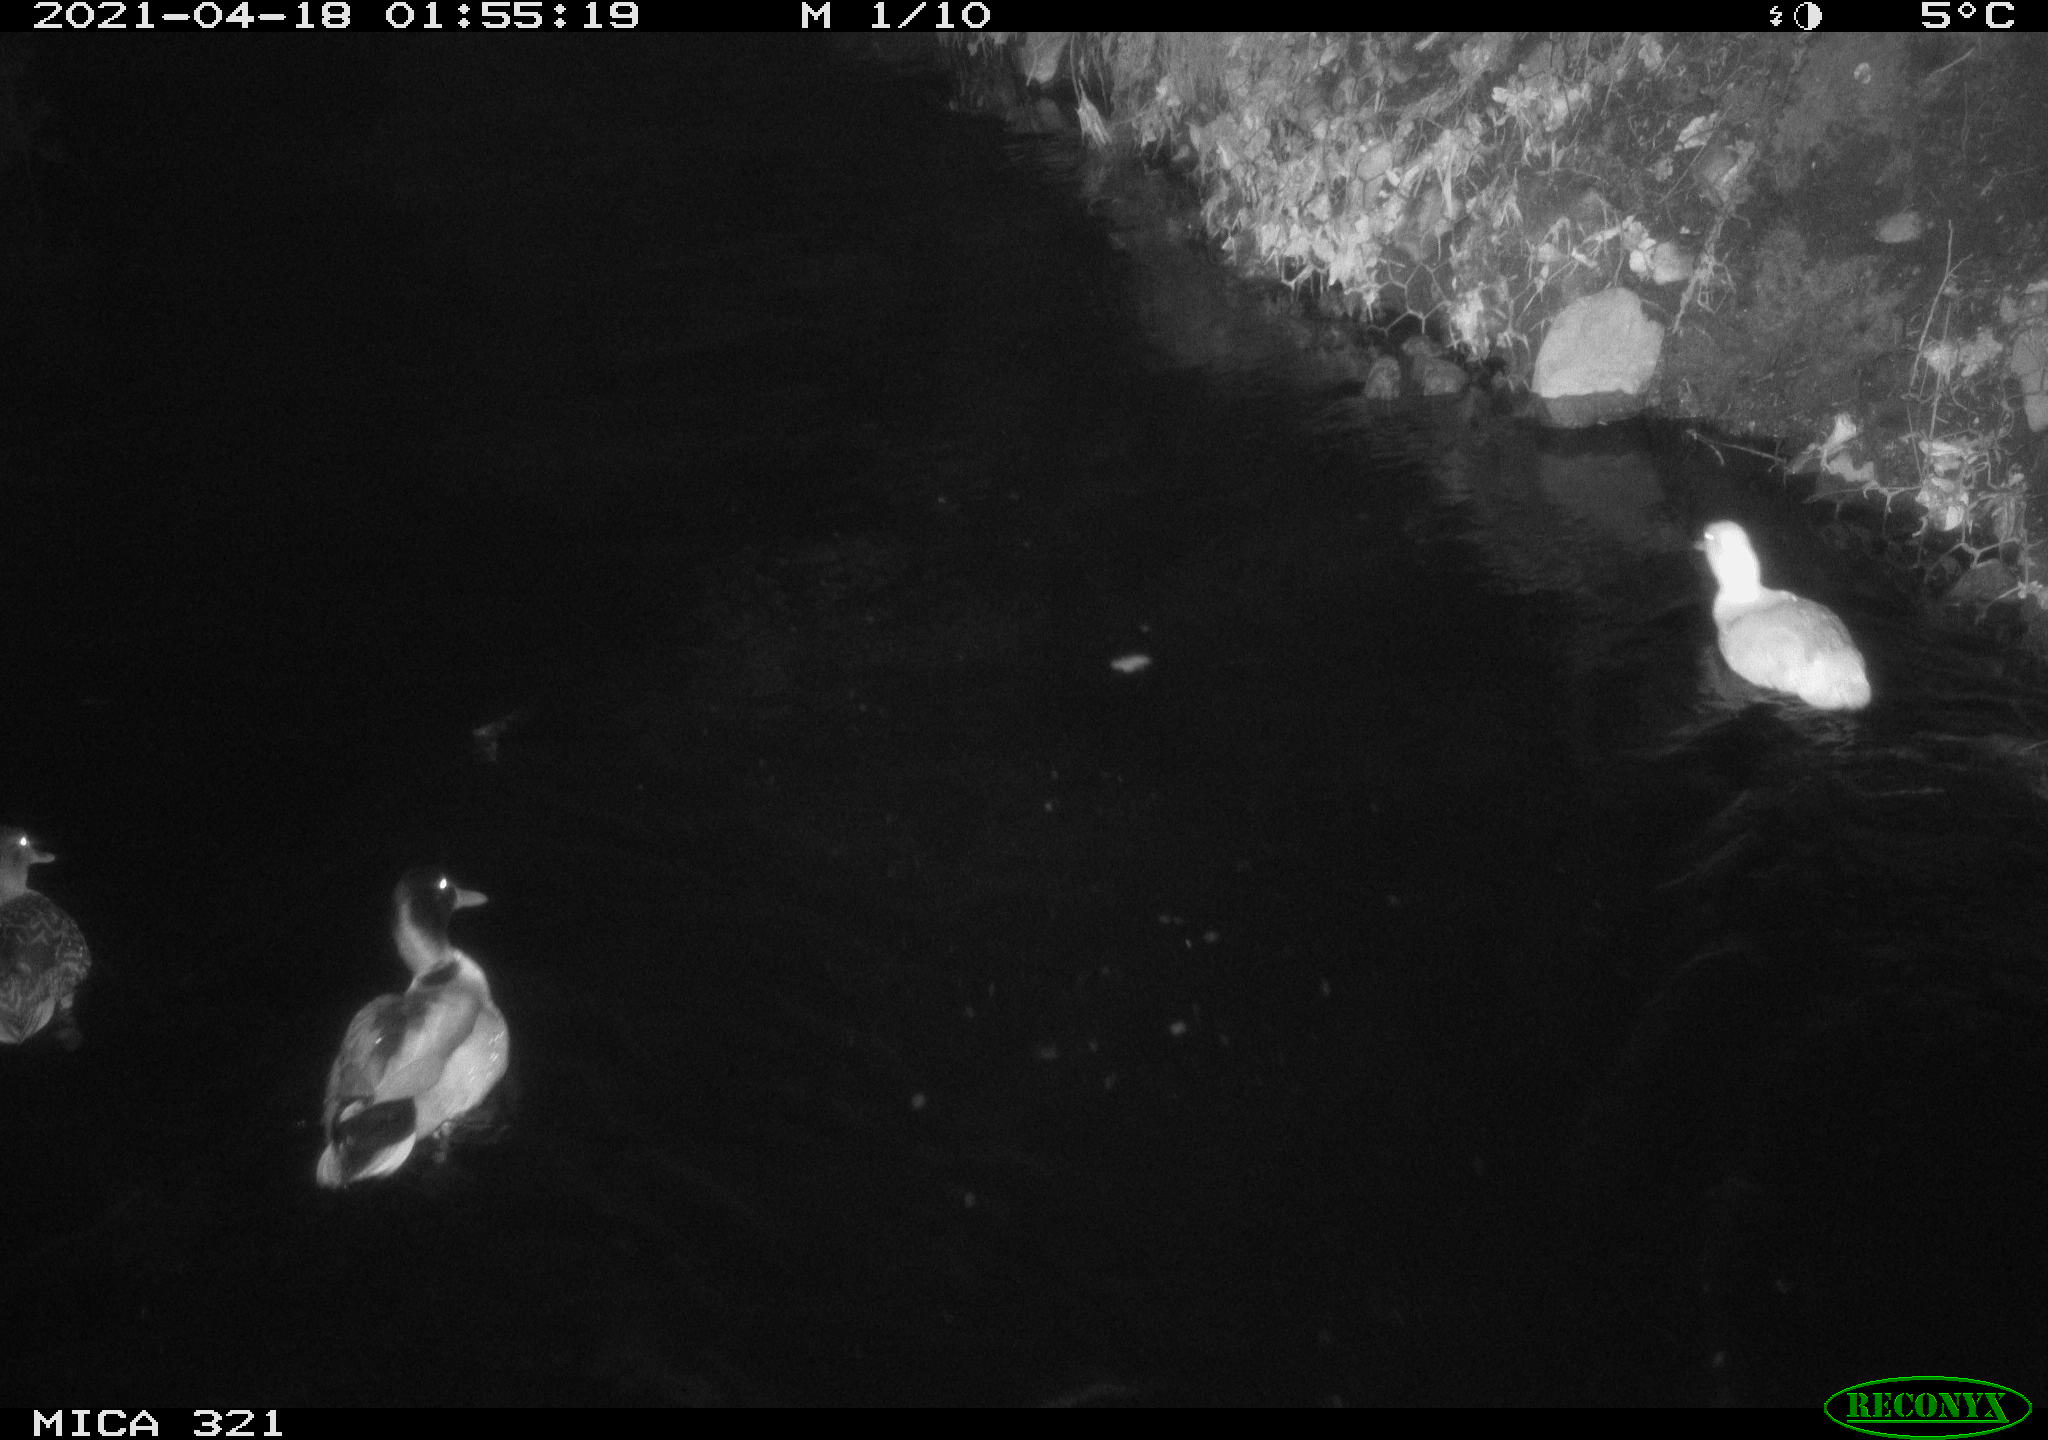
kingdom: Animalia
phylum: Chordata
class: Aves
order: Anseriformes
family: Anatidae
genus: Anas
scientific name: Anas
